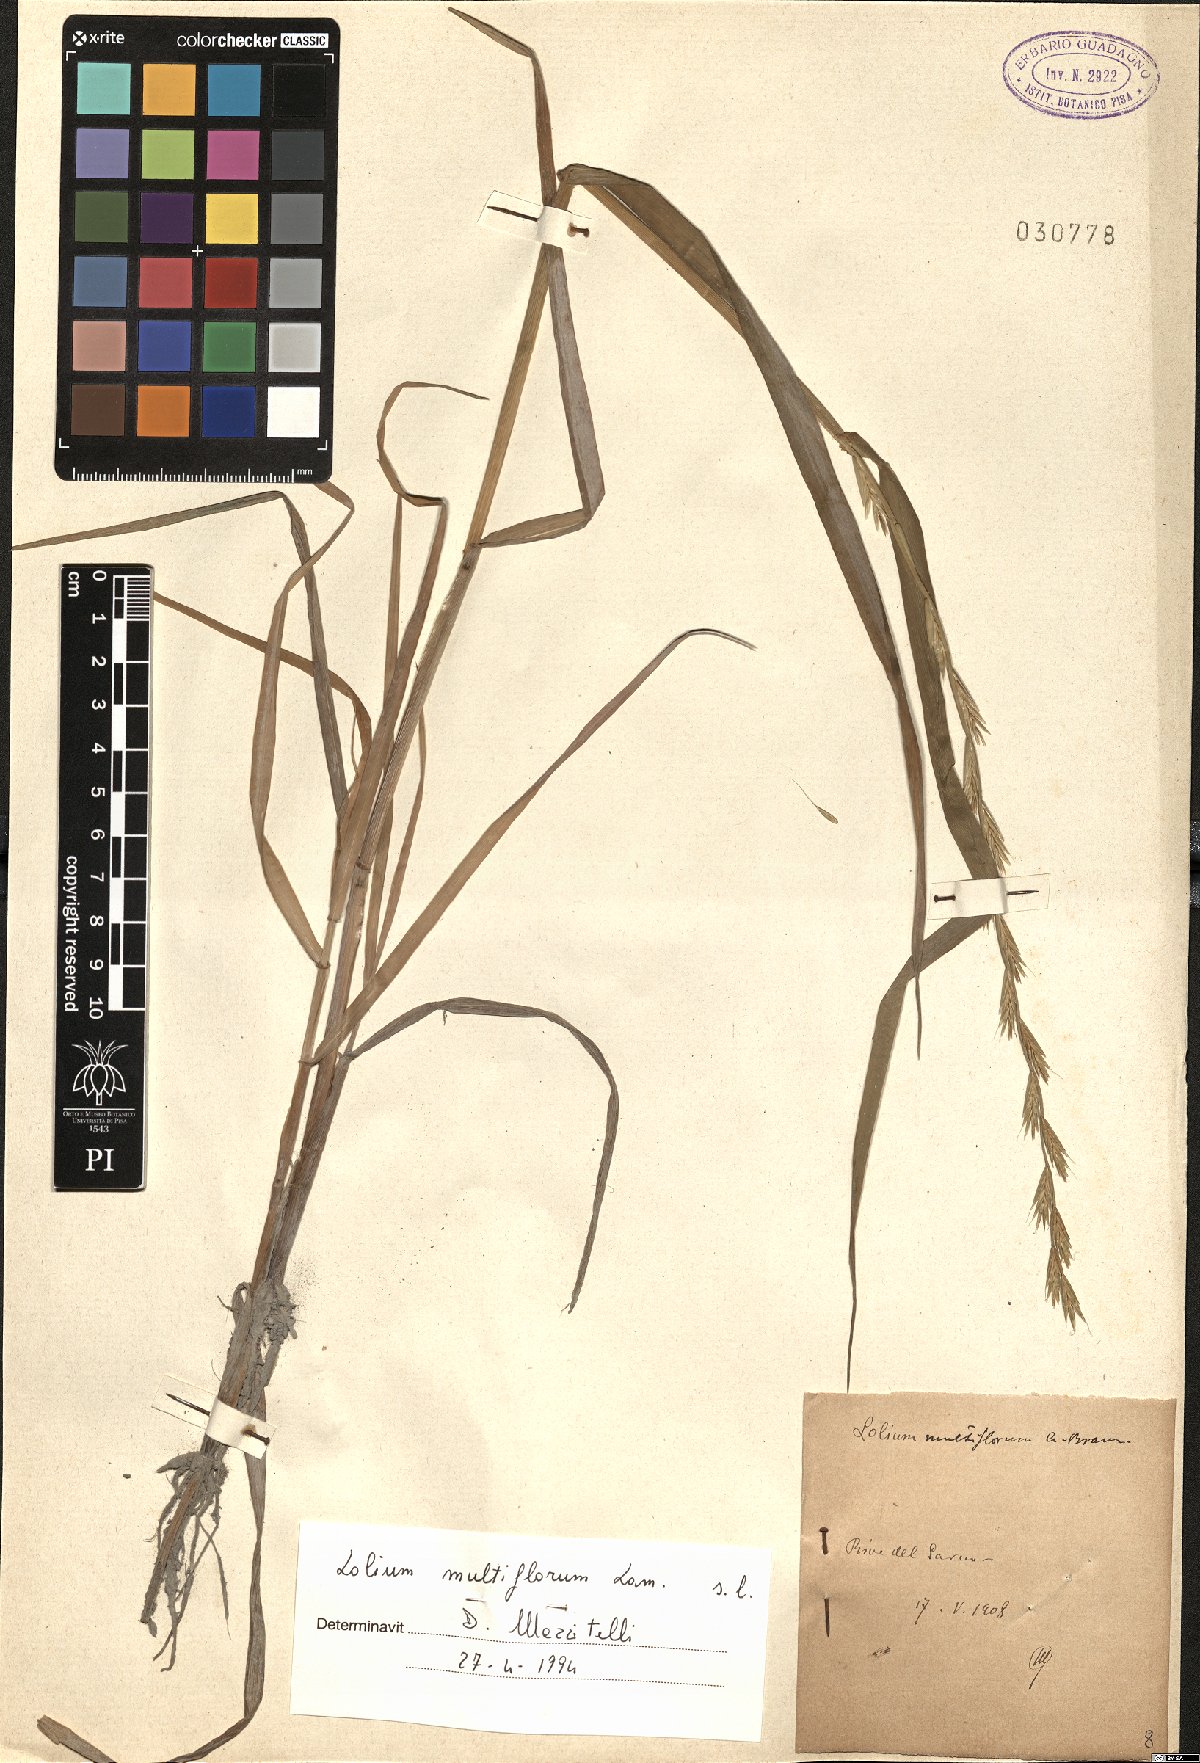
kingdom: Plantae
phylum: Tracheophyta
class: Liliopsida
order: Poales
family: Poaceae
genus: Lolium
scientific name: Lolium multiflorum
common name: Annual ryegrass
